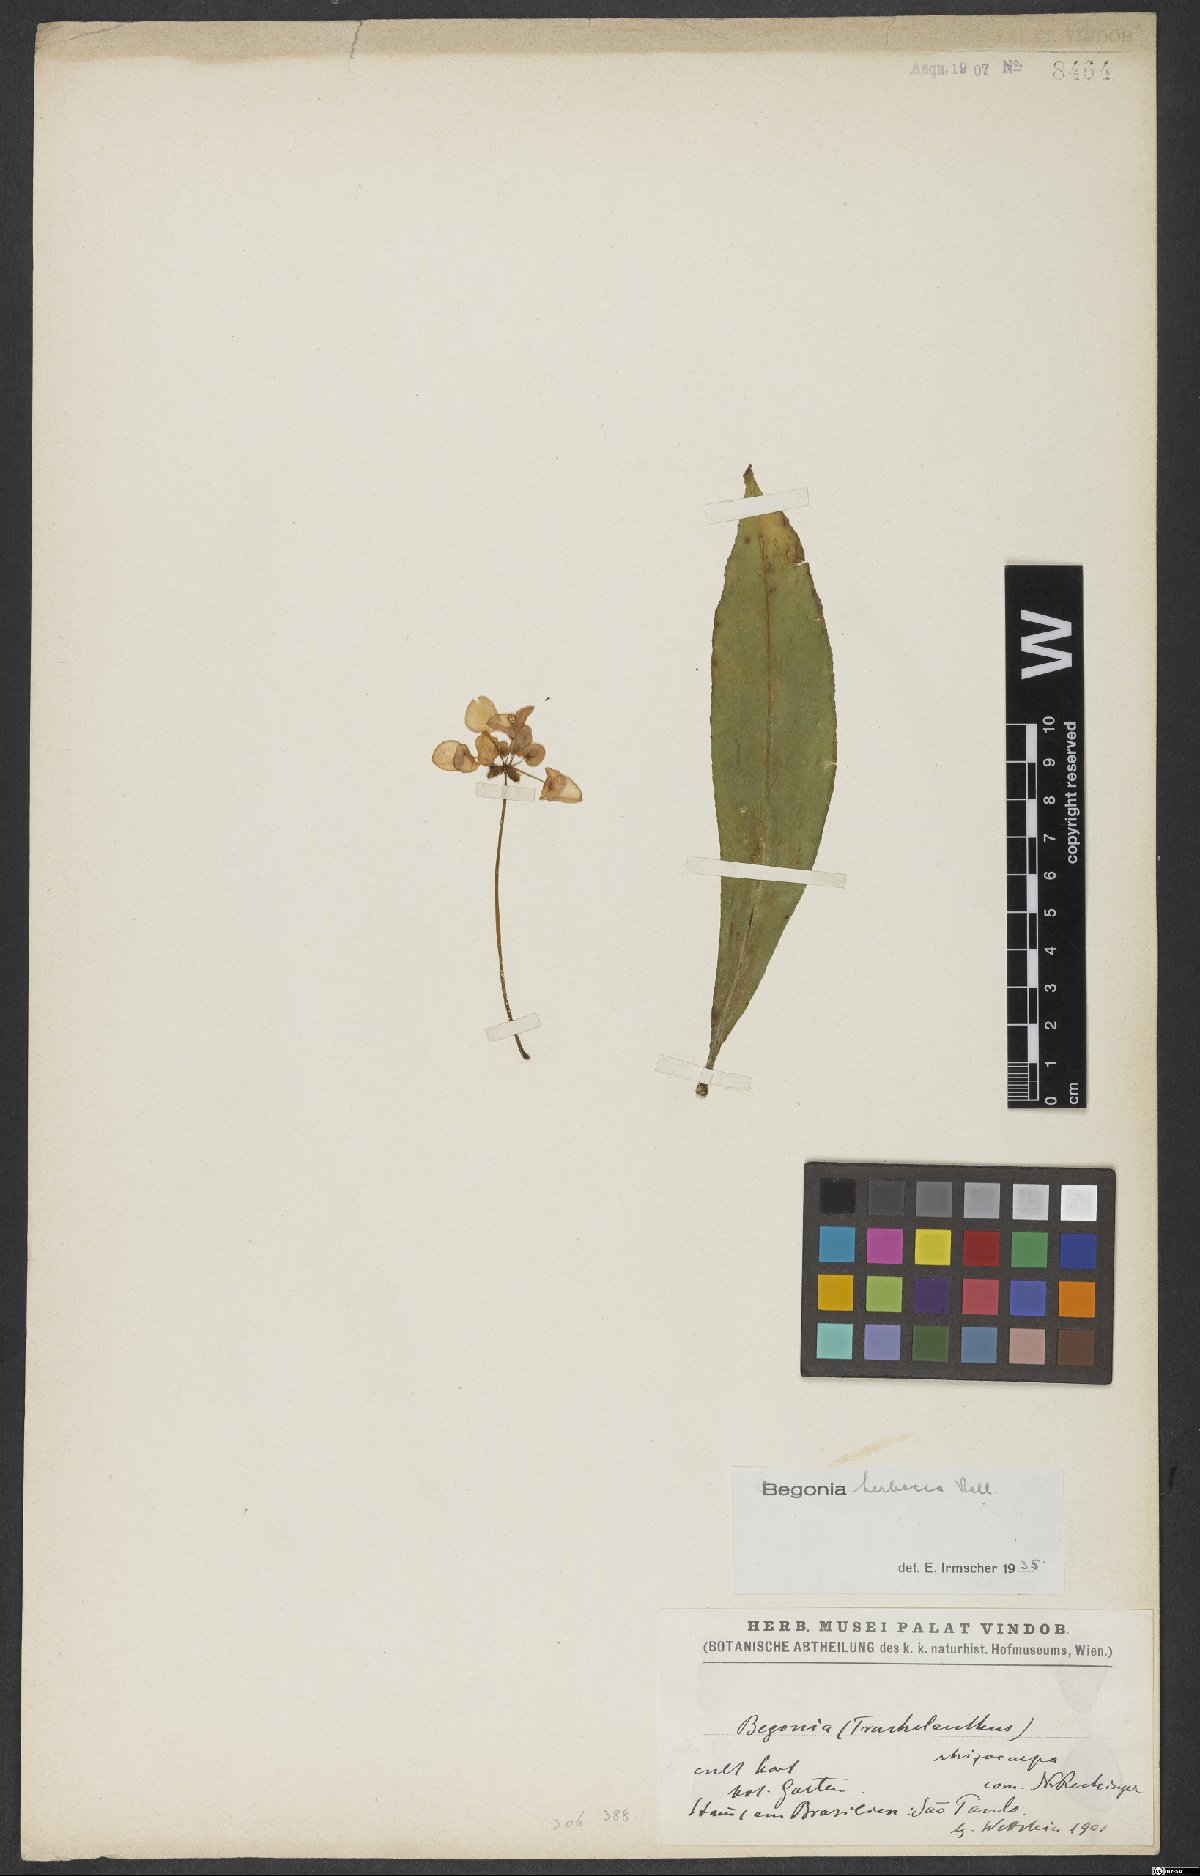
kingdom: Plantae
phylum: Tracheophyta
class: Magnoliopsida
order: Cucurbitales
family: Begoniaceae
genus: Begonia
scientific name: Begonia herbacea
